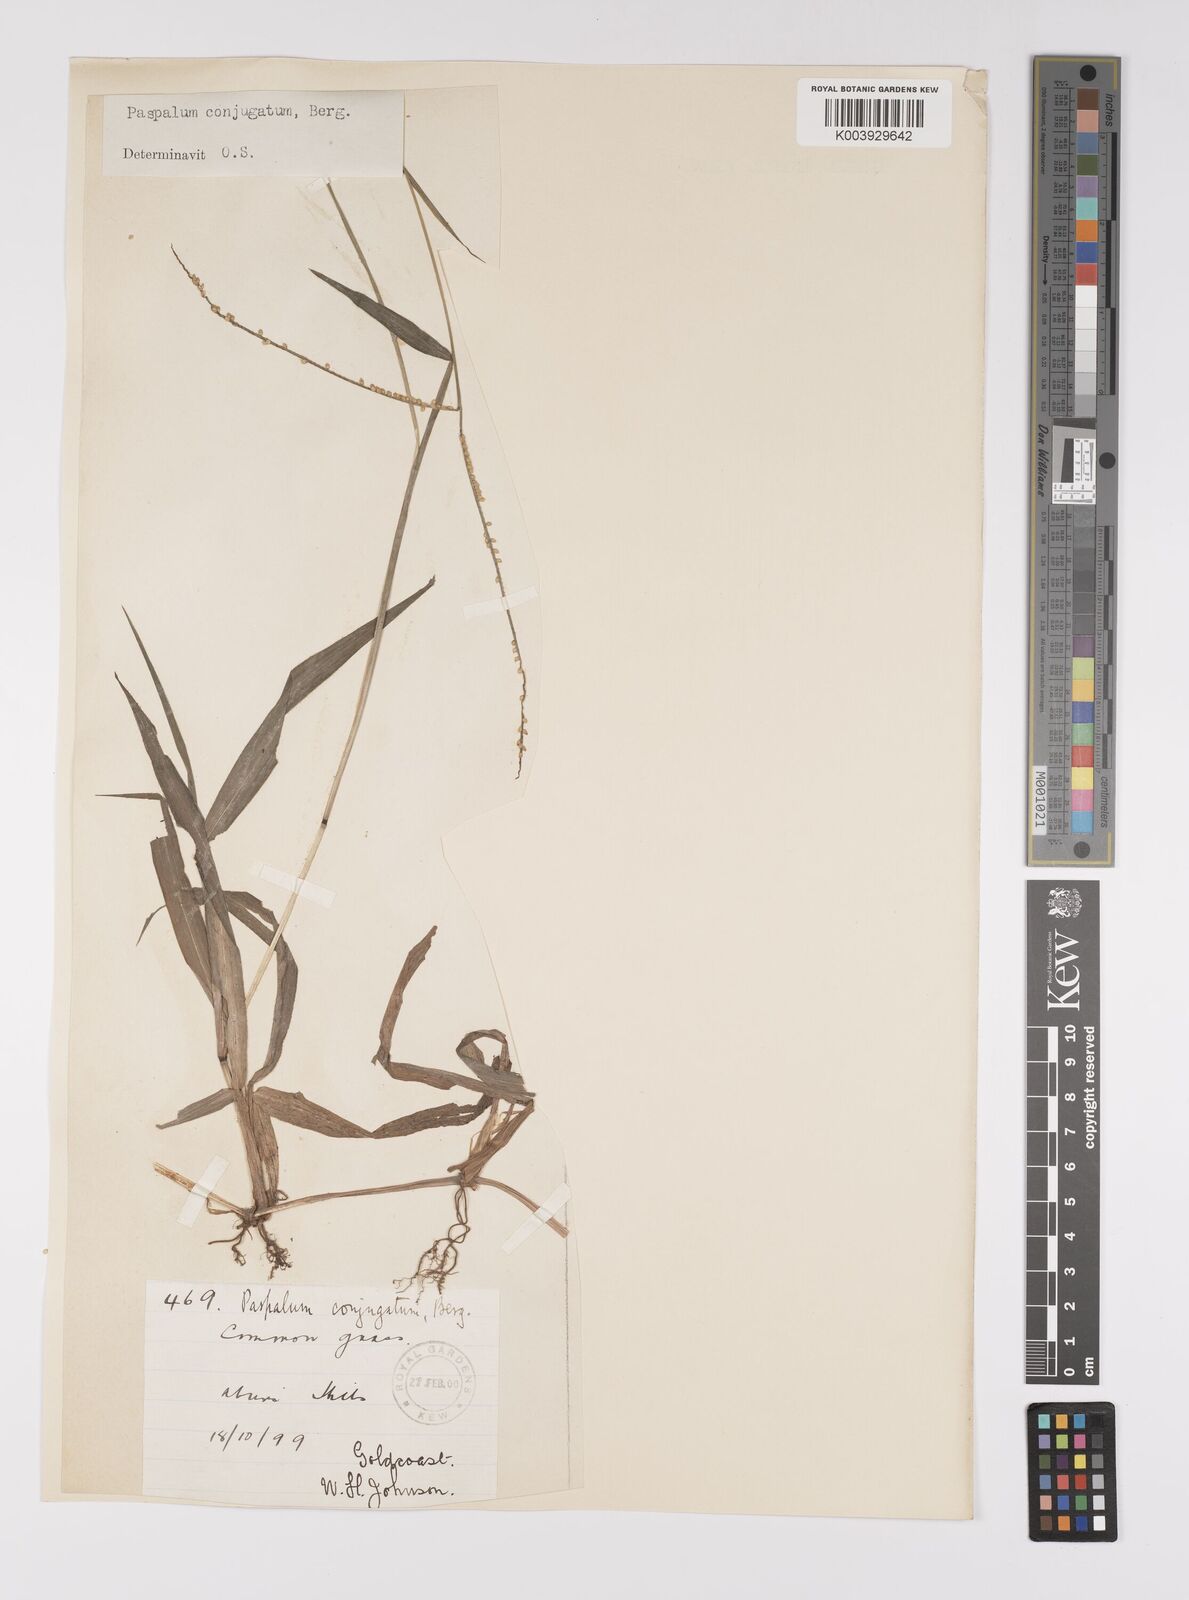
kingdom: Plantae
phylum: Tracheophyta
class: Liliopsida
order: Poales
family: Poaceae
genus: Paspalum
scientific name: Paspalum conjugatum
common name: Hilograss
